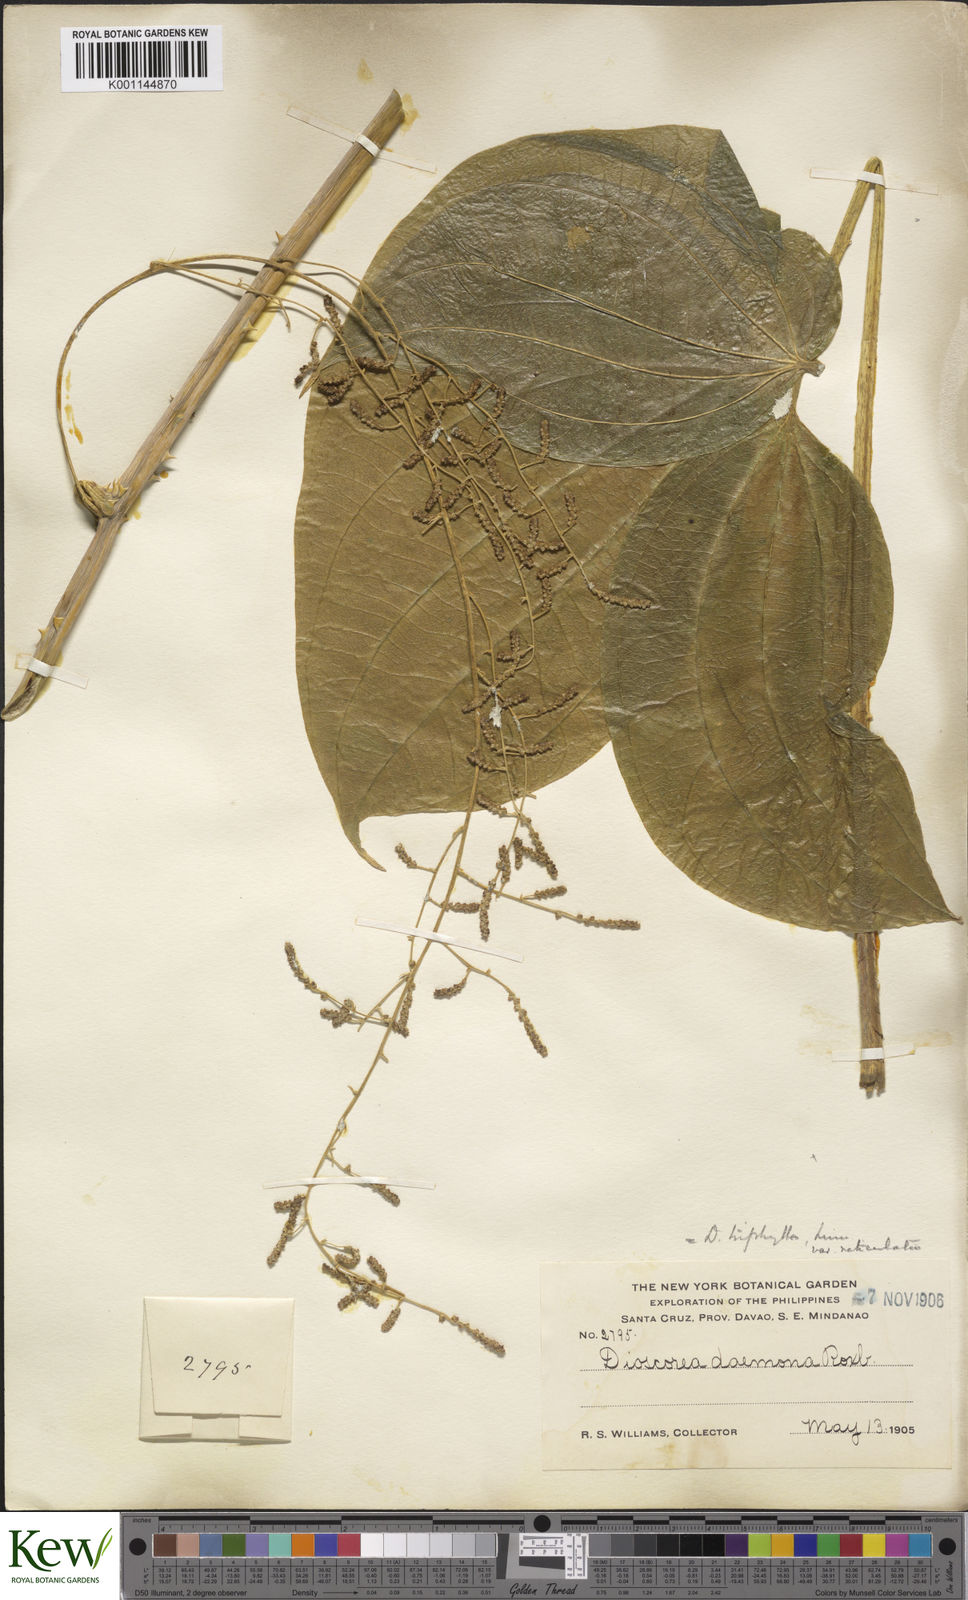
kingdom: Plantae
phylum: Tracheophyta
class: Liliopsida
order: Dioscoreales
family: Dioscoreaceae
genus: Dioscorea
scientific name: Dioscorea hispida
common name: Asiatic bitter yam
